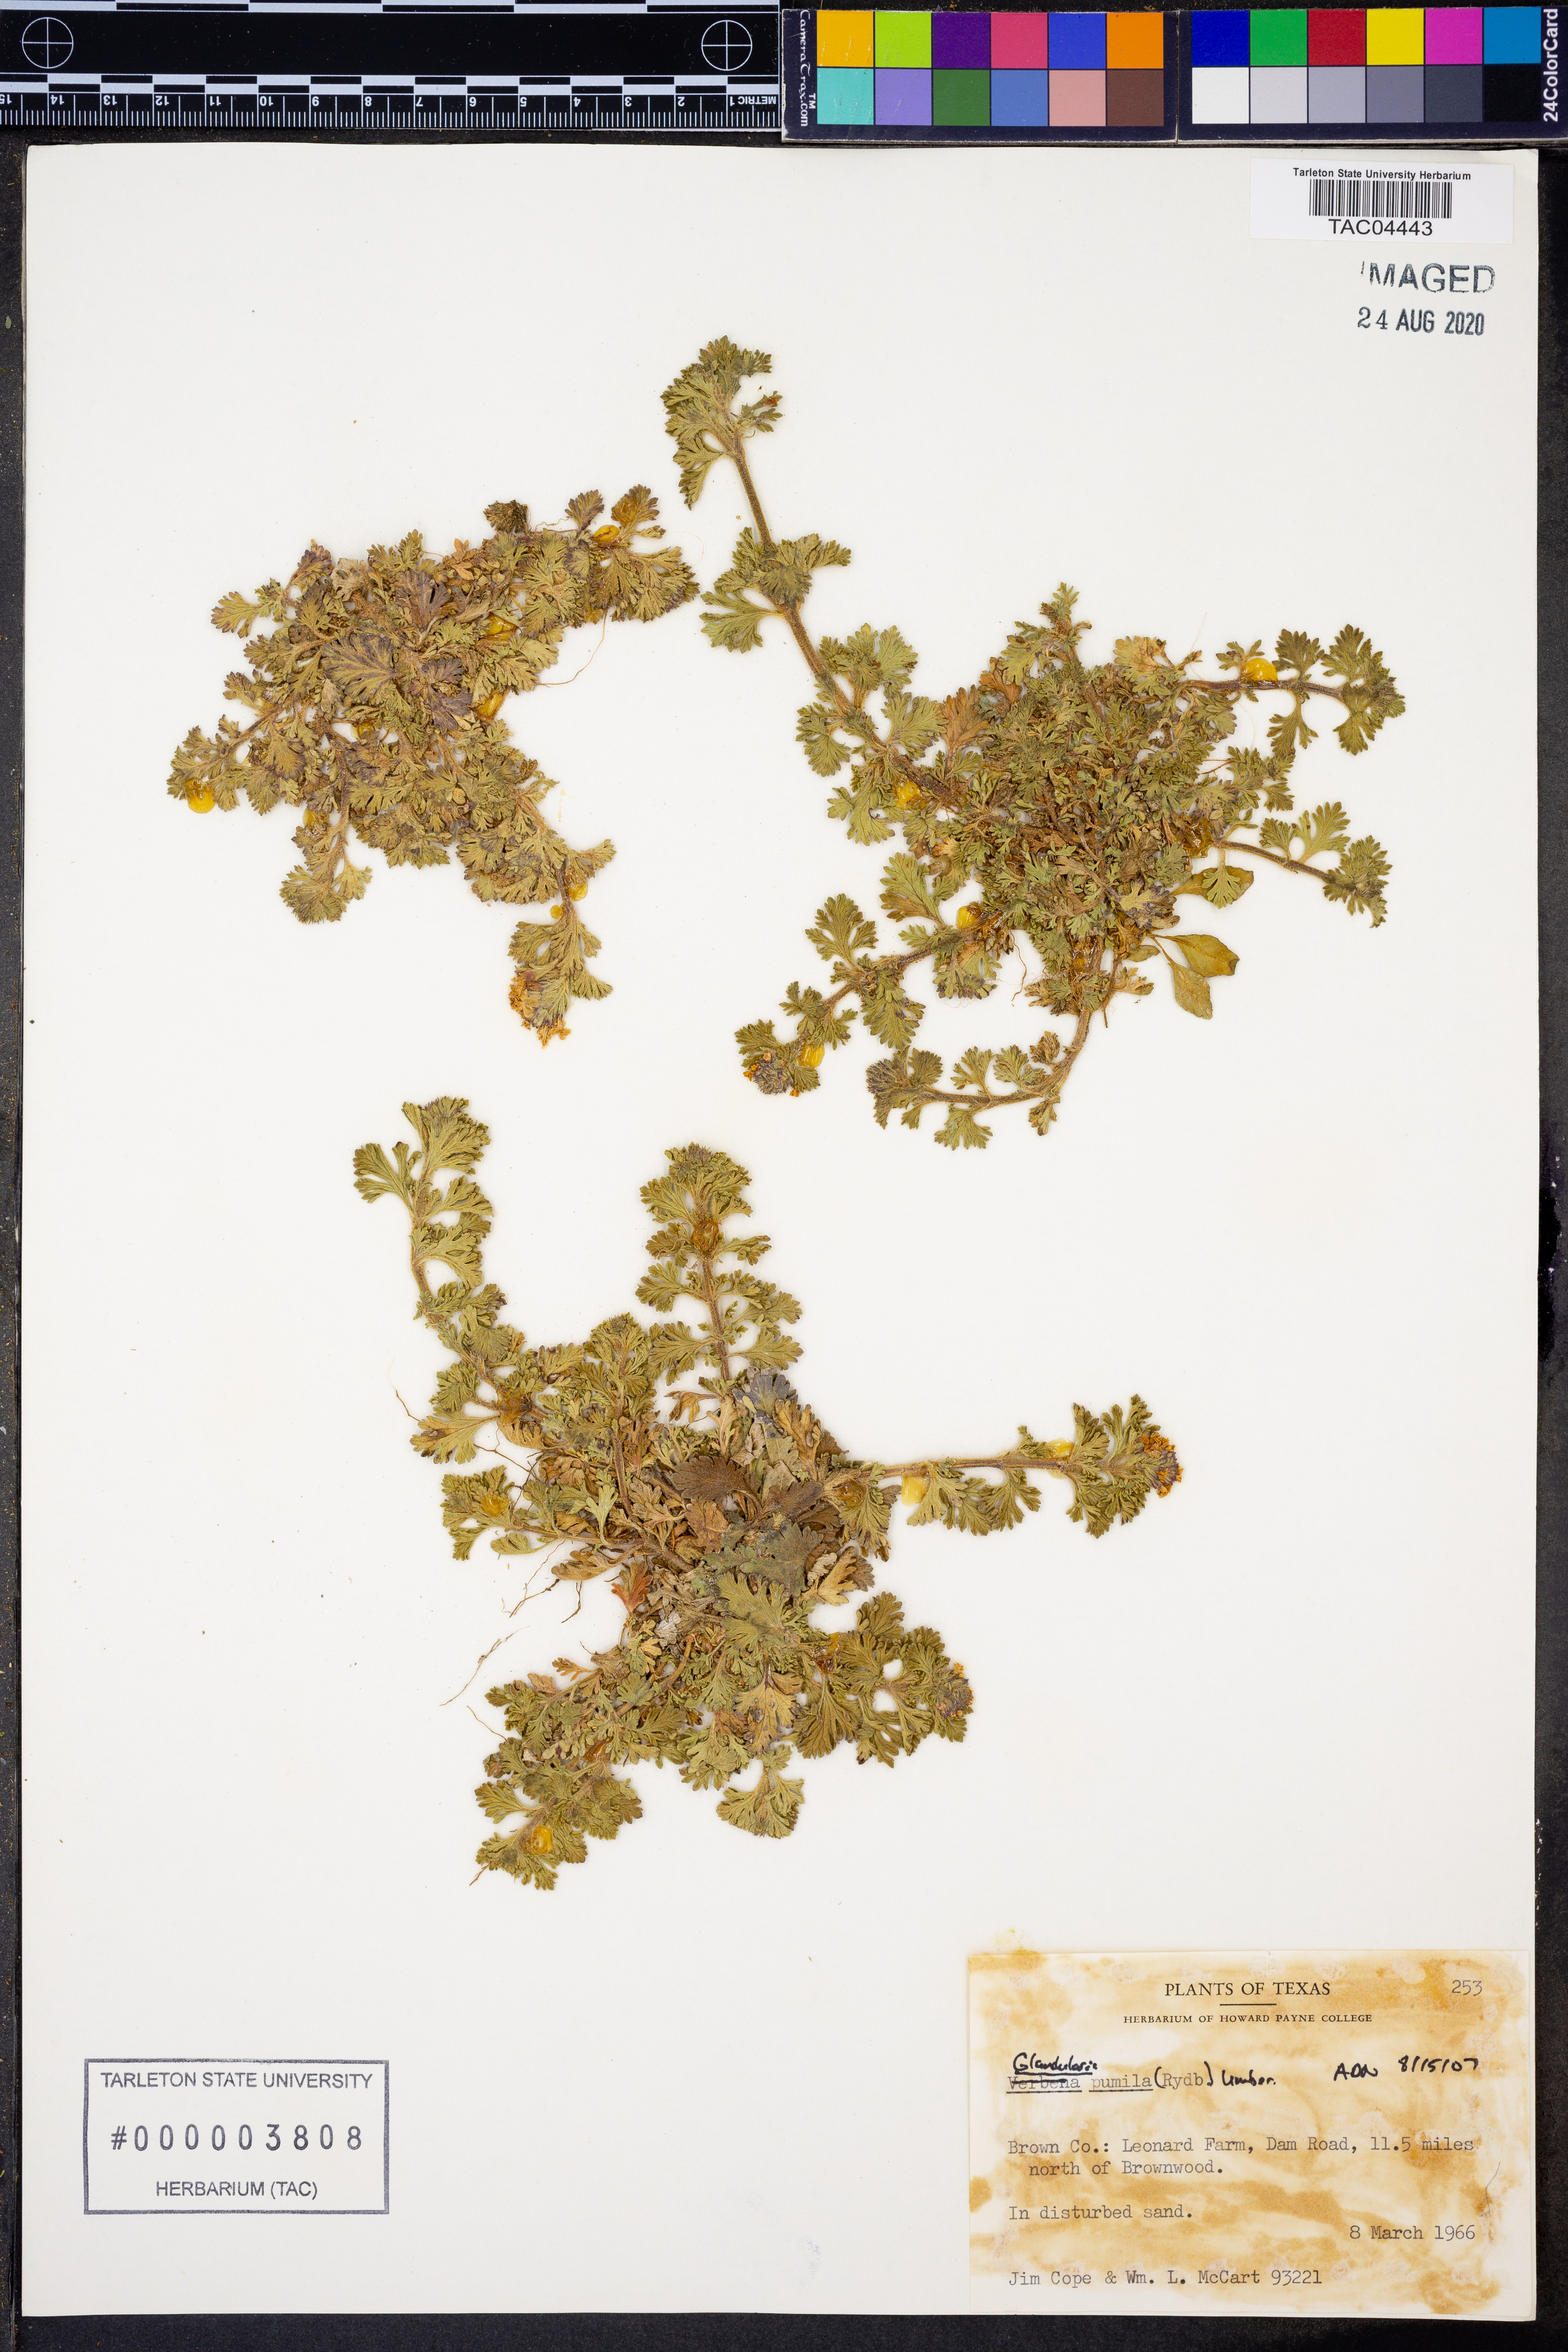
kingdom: Plantae
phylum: Tracheophyta
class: Magnoliopsida
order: Lamiales
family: Verbenaceae
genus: Verbena
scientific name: Verbena pumila
